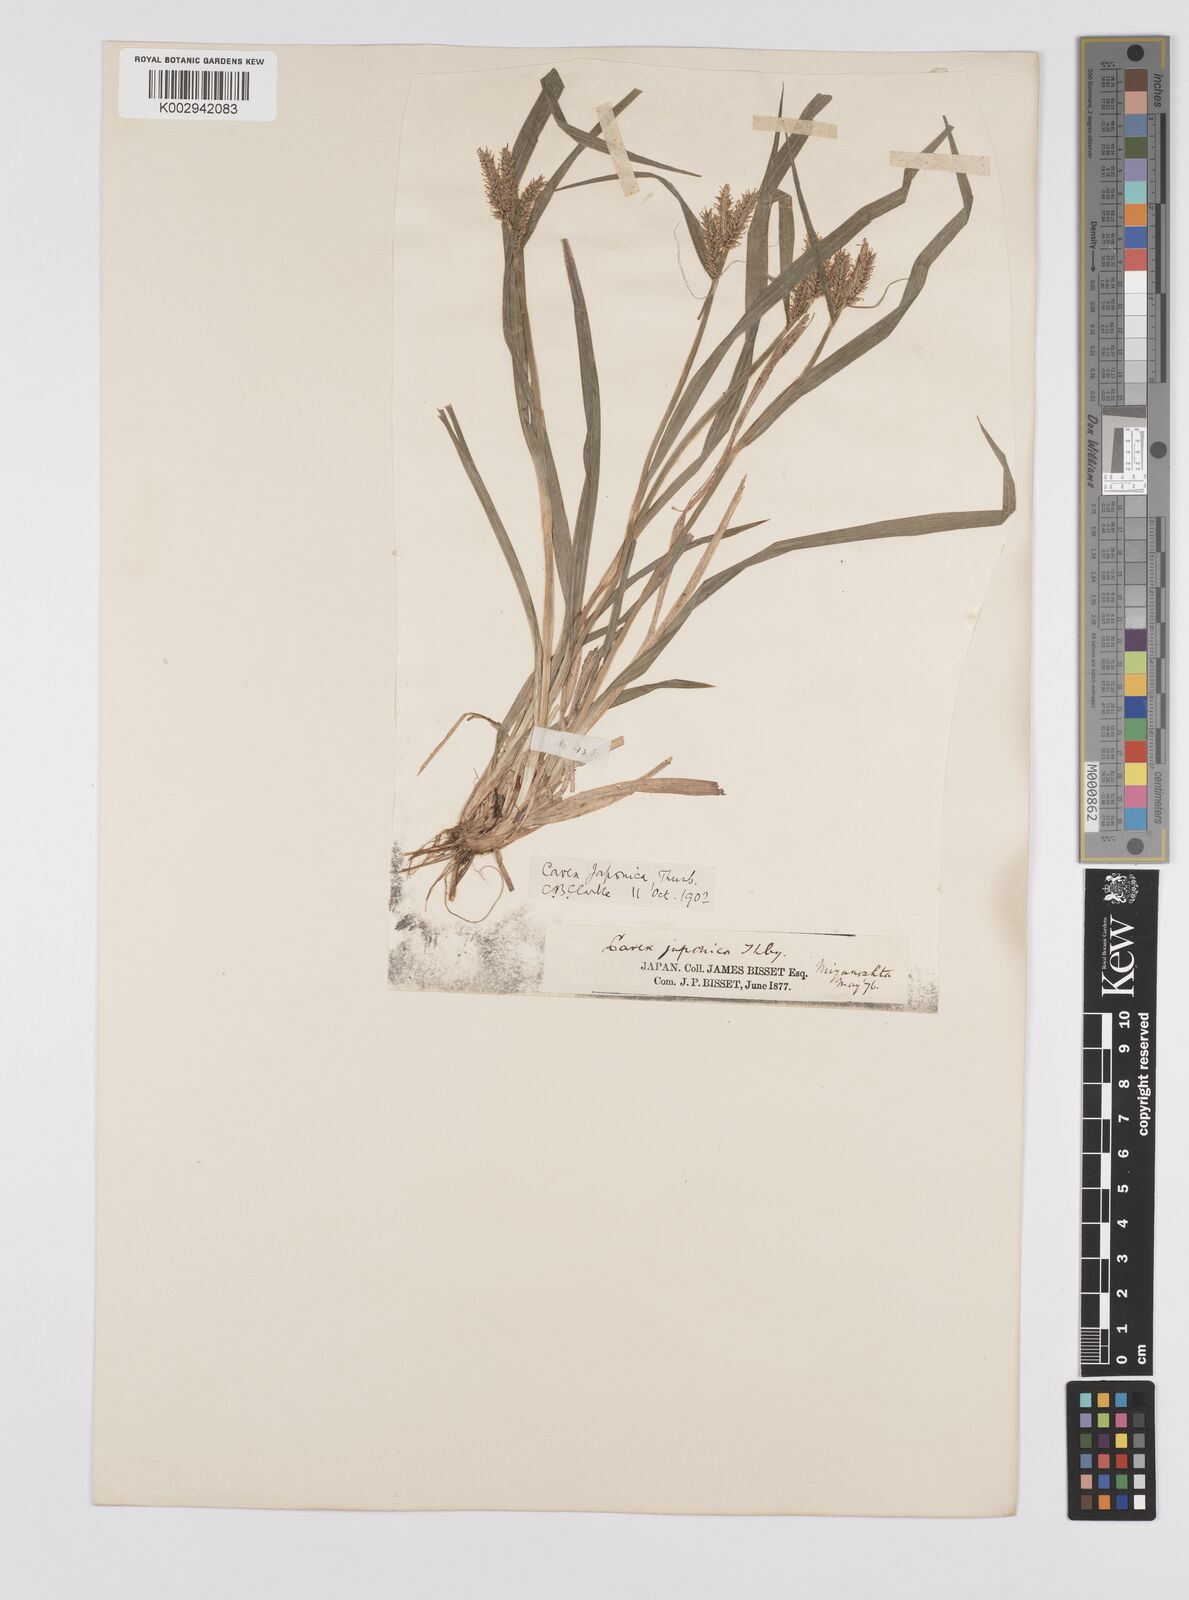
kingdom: Plantae
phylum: Tracheophyta
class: Liliopsida
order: Poales
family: Cyperaceae
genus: Carex
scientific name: Carex japonica
